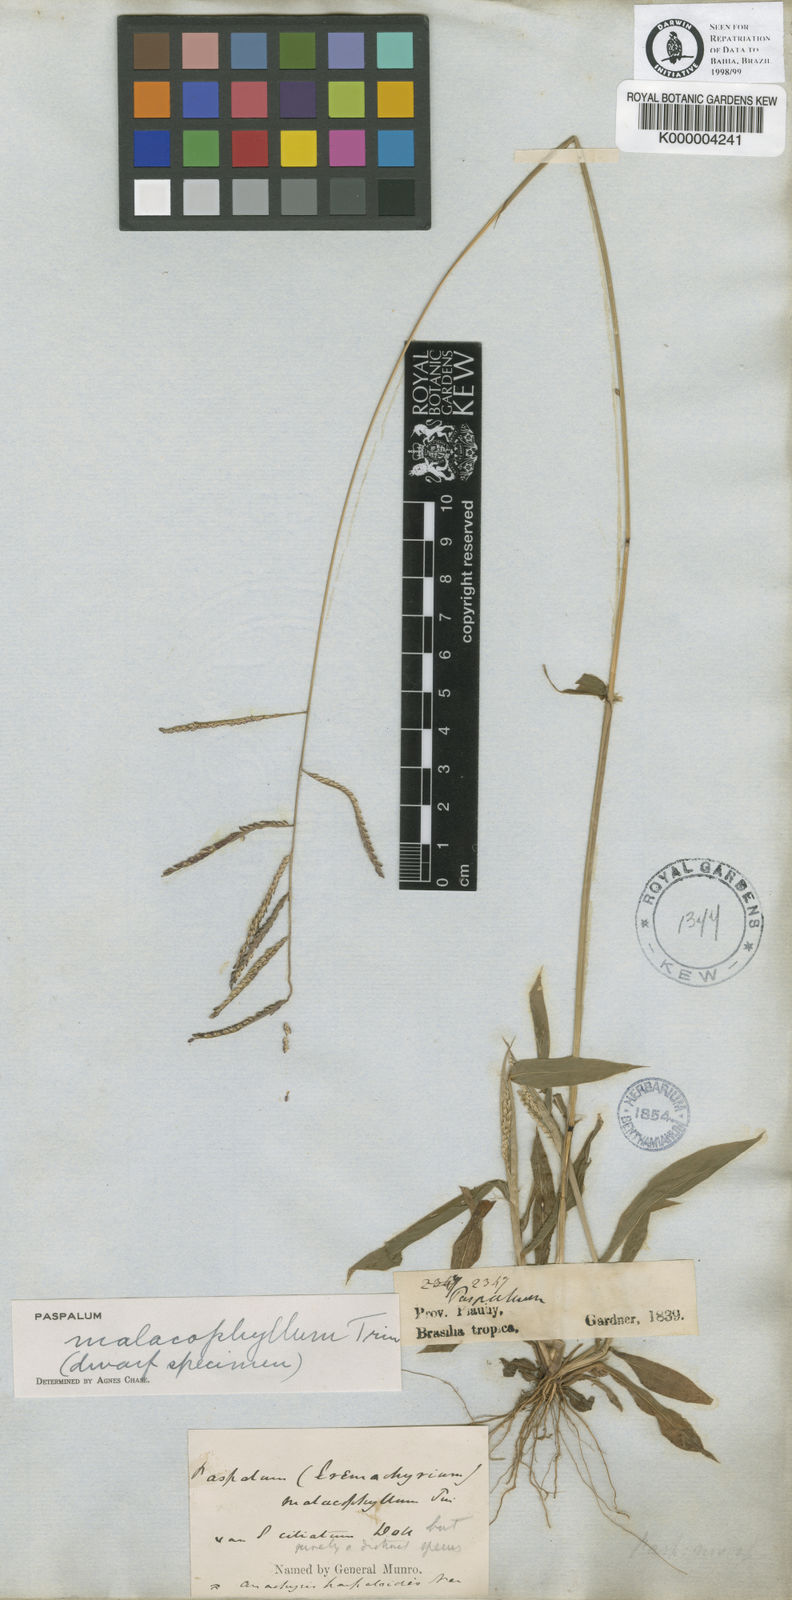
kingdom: Plantae
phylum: Tracheophyta
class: Liliopsida
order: Poales
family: Poaceae
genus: Paspalum
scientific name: Paspalum malacophyllum
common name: Ribbed paspalum
